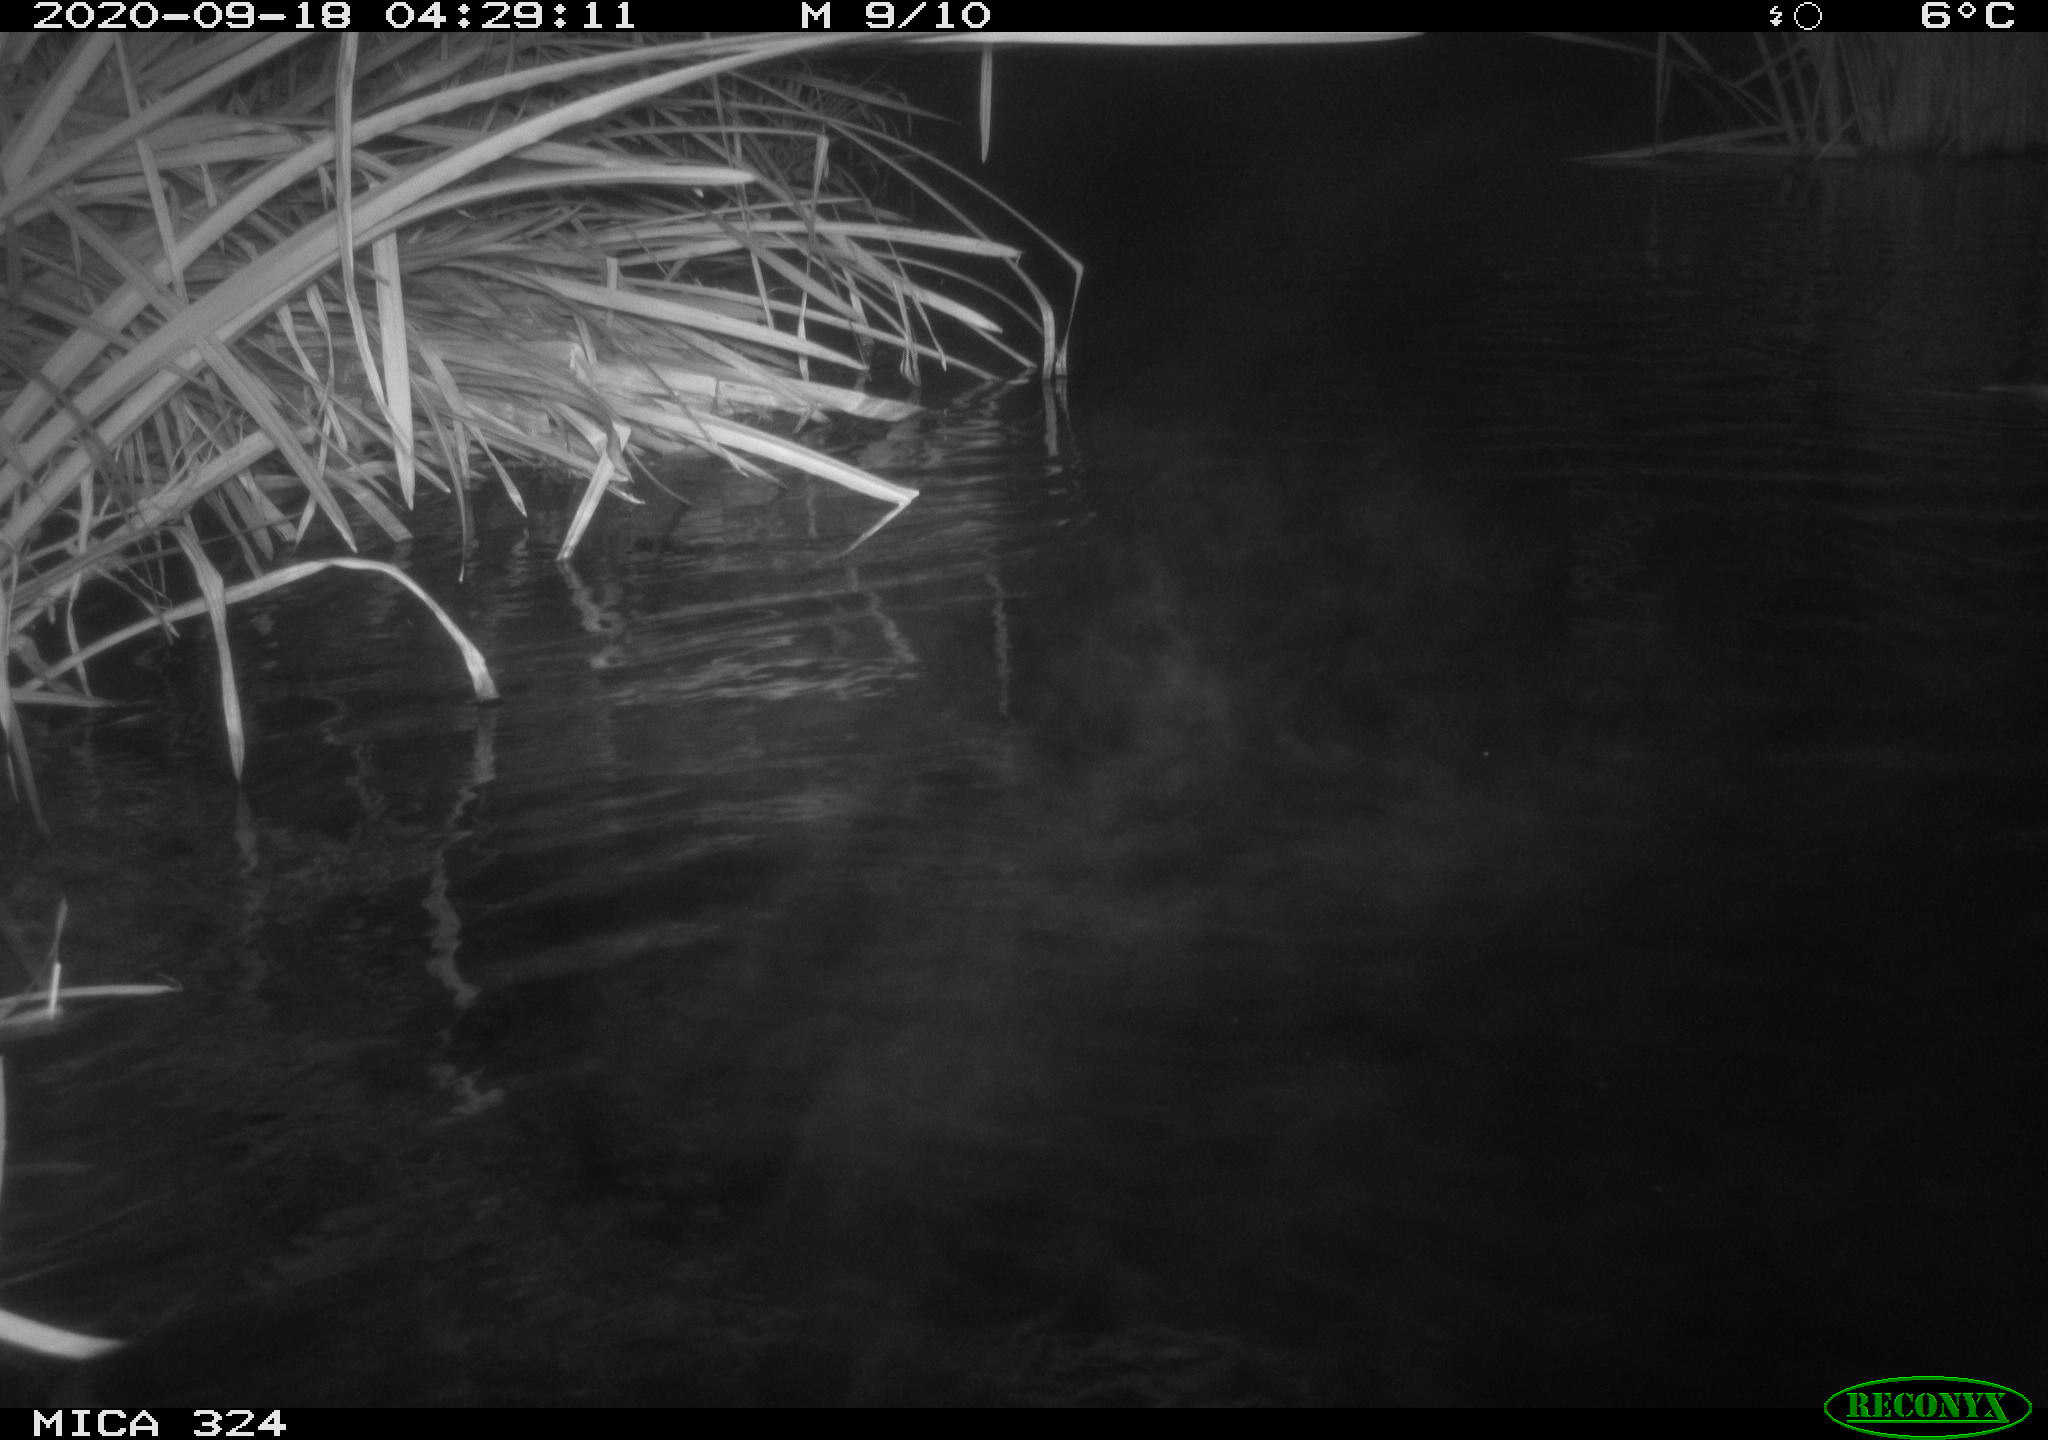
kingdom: Animalia
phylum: Chordata
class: Mammalia
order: Rodentia
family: Cricetidae
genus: Ondatra
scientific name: Ondatra zibethicus
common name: Muskrat
